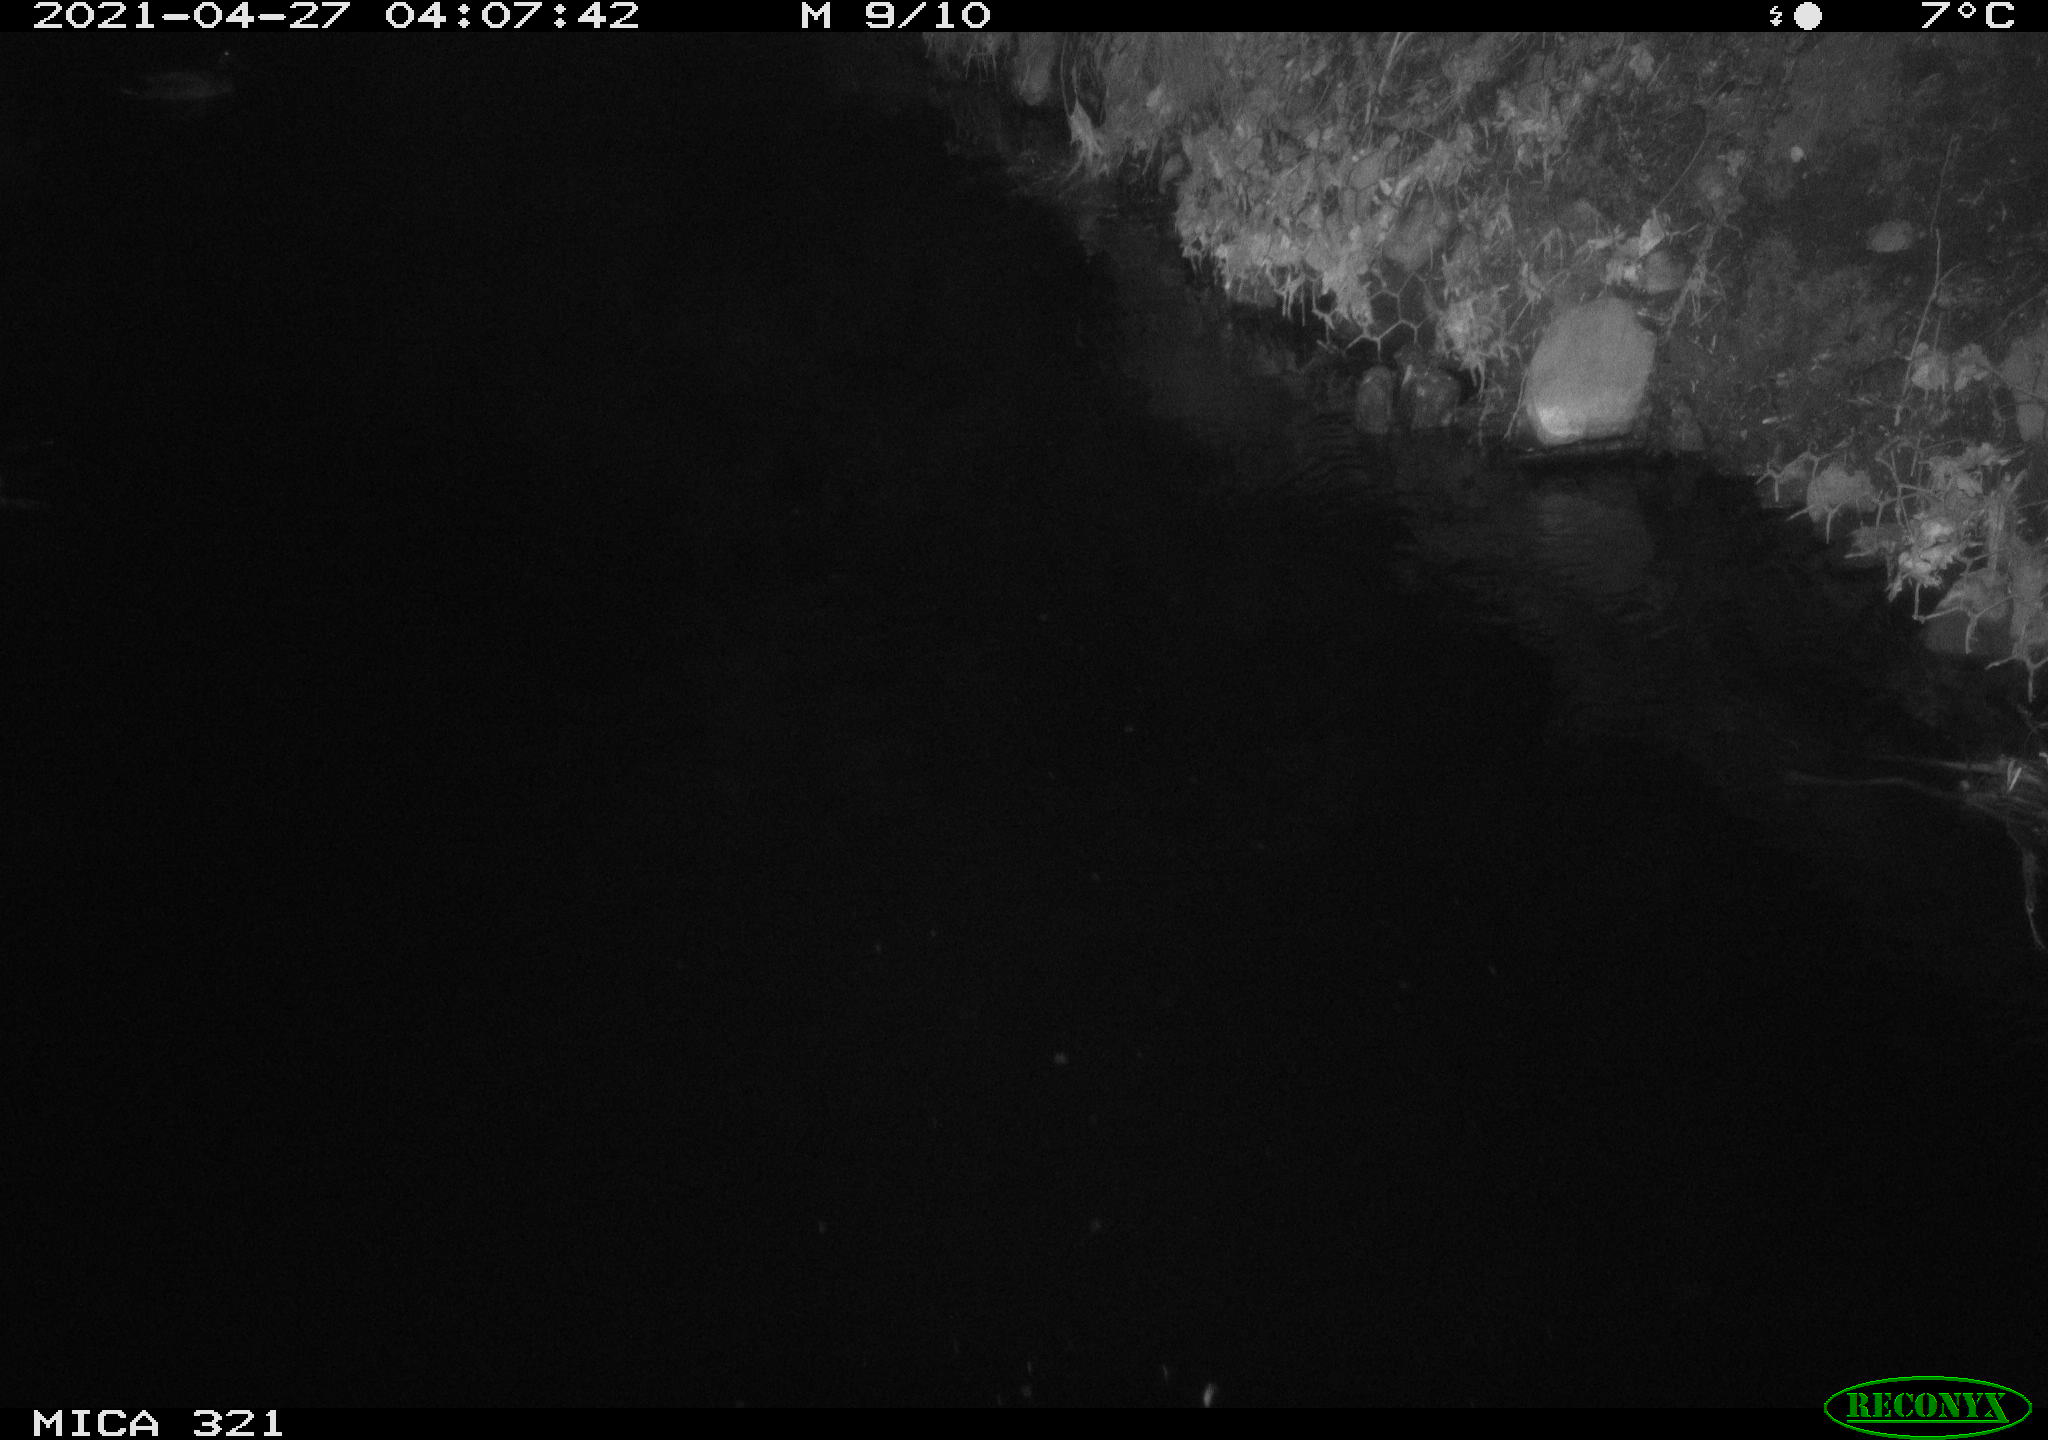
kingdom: Animalia
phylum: Chordata
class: Aves
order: Anseriformes
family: Anatidae
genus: Anas
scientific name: Anas
